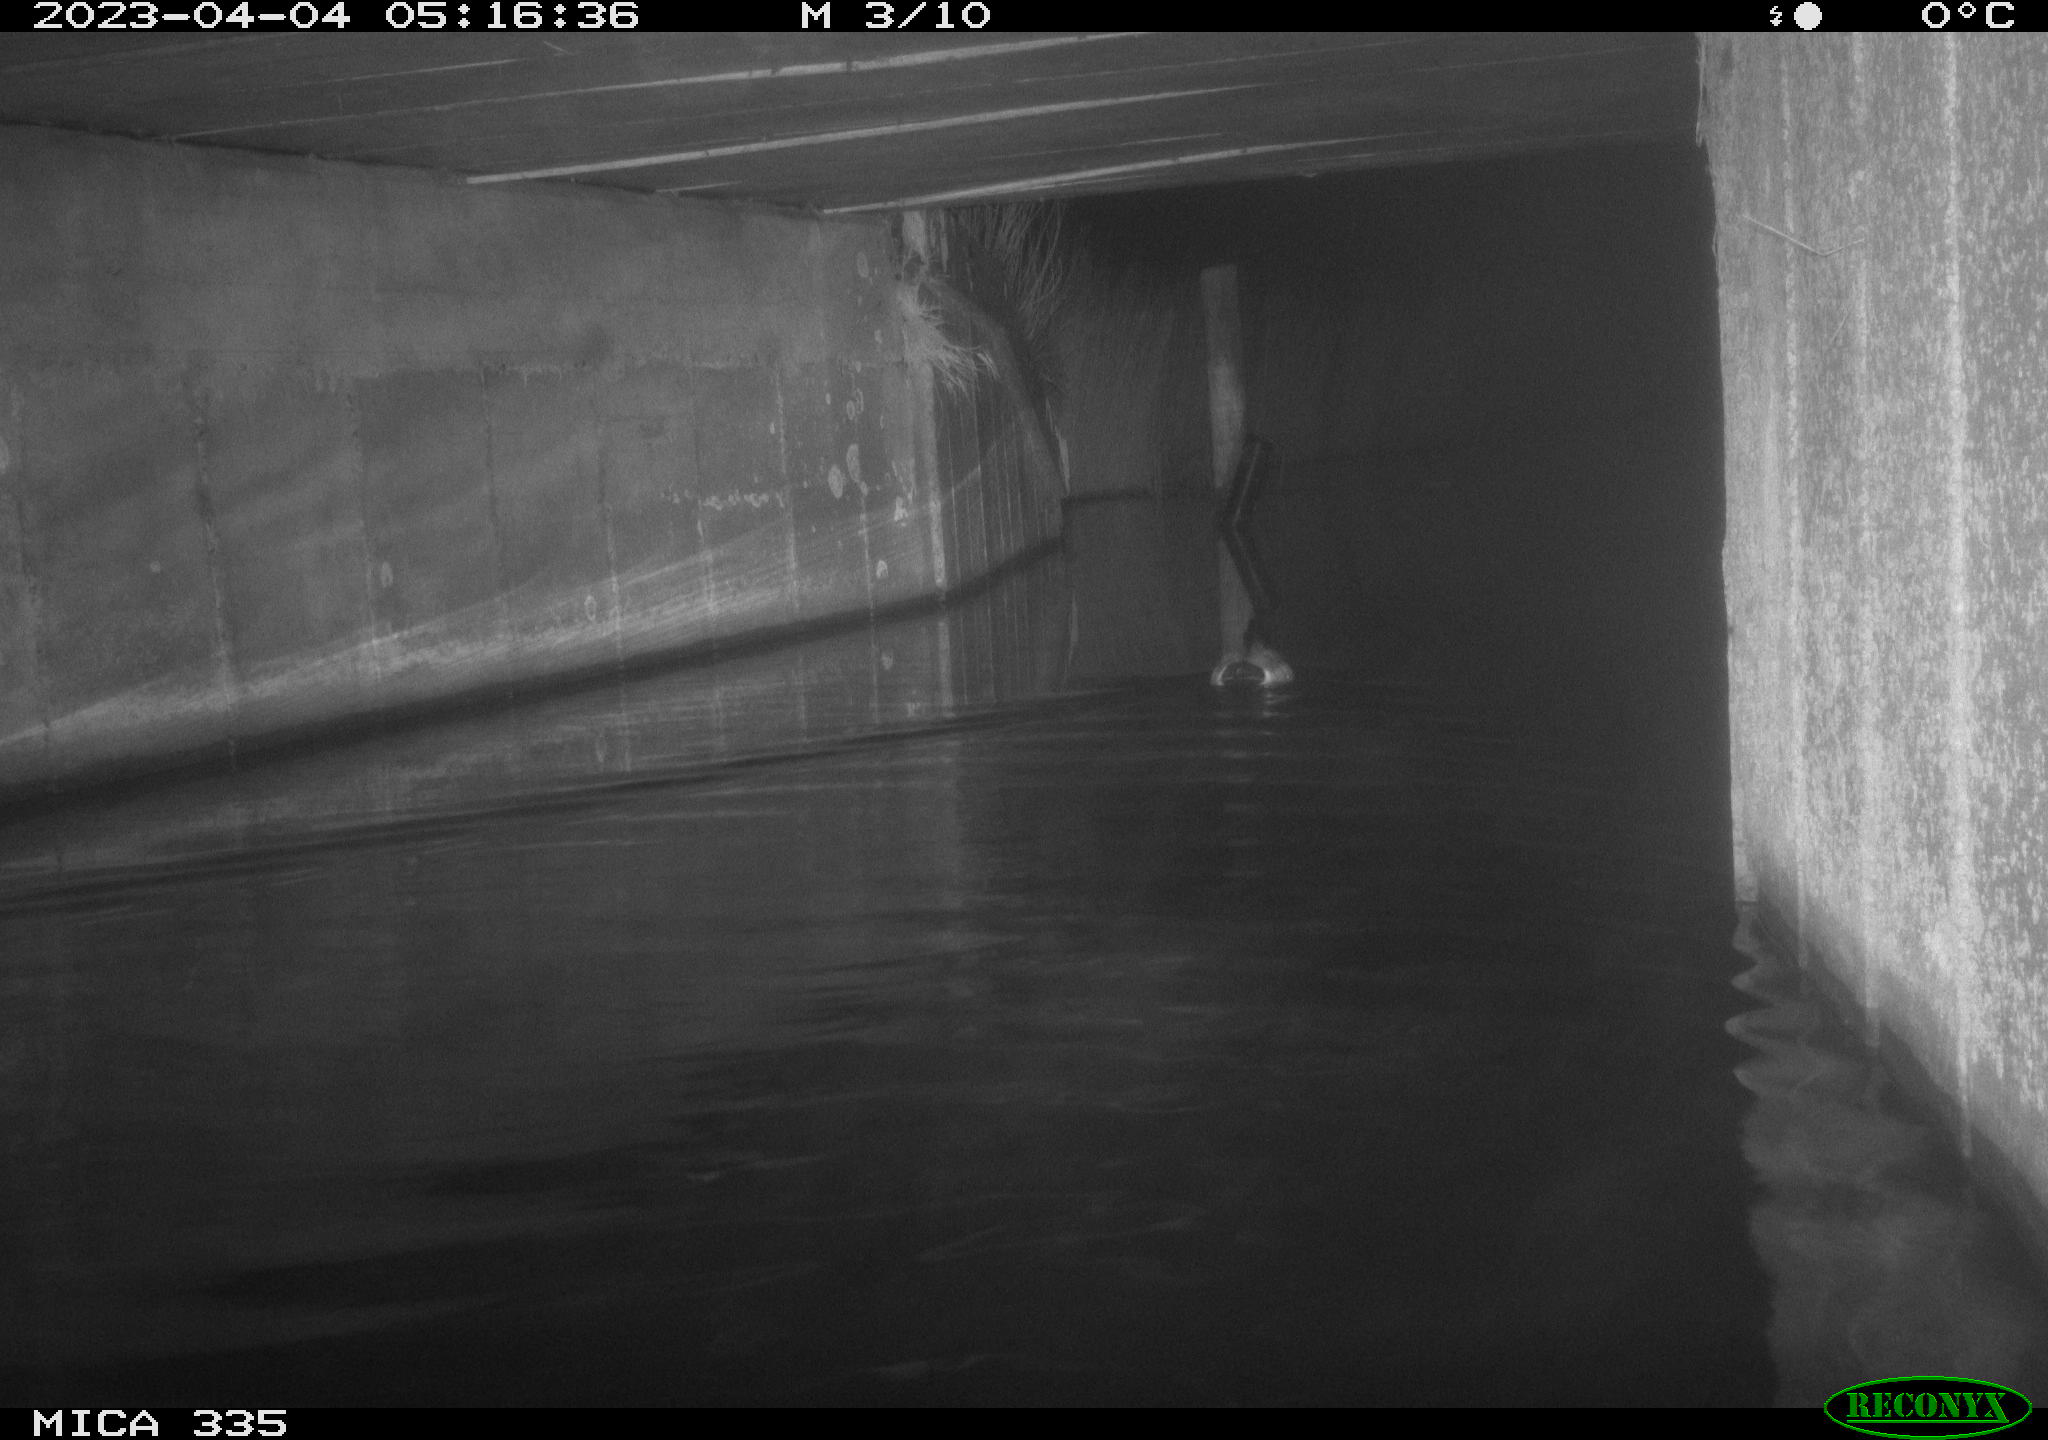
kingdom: Animalia
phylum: Chordata
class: Aves
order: Anseriformes
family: Anatidae
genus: Anas
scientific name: Anas platyrhynchos
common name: Mallard
